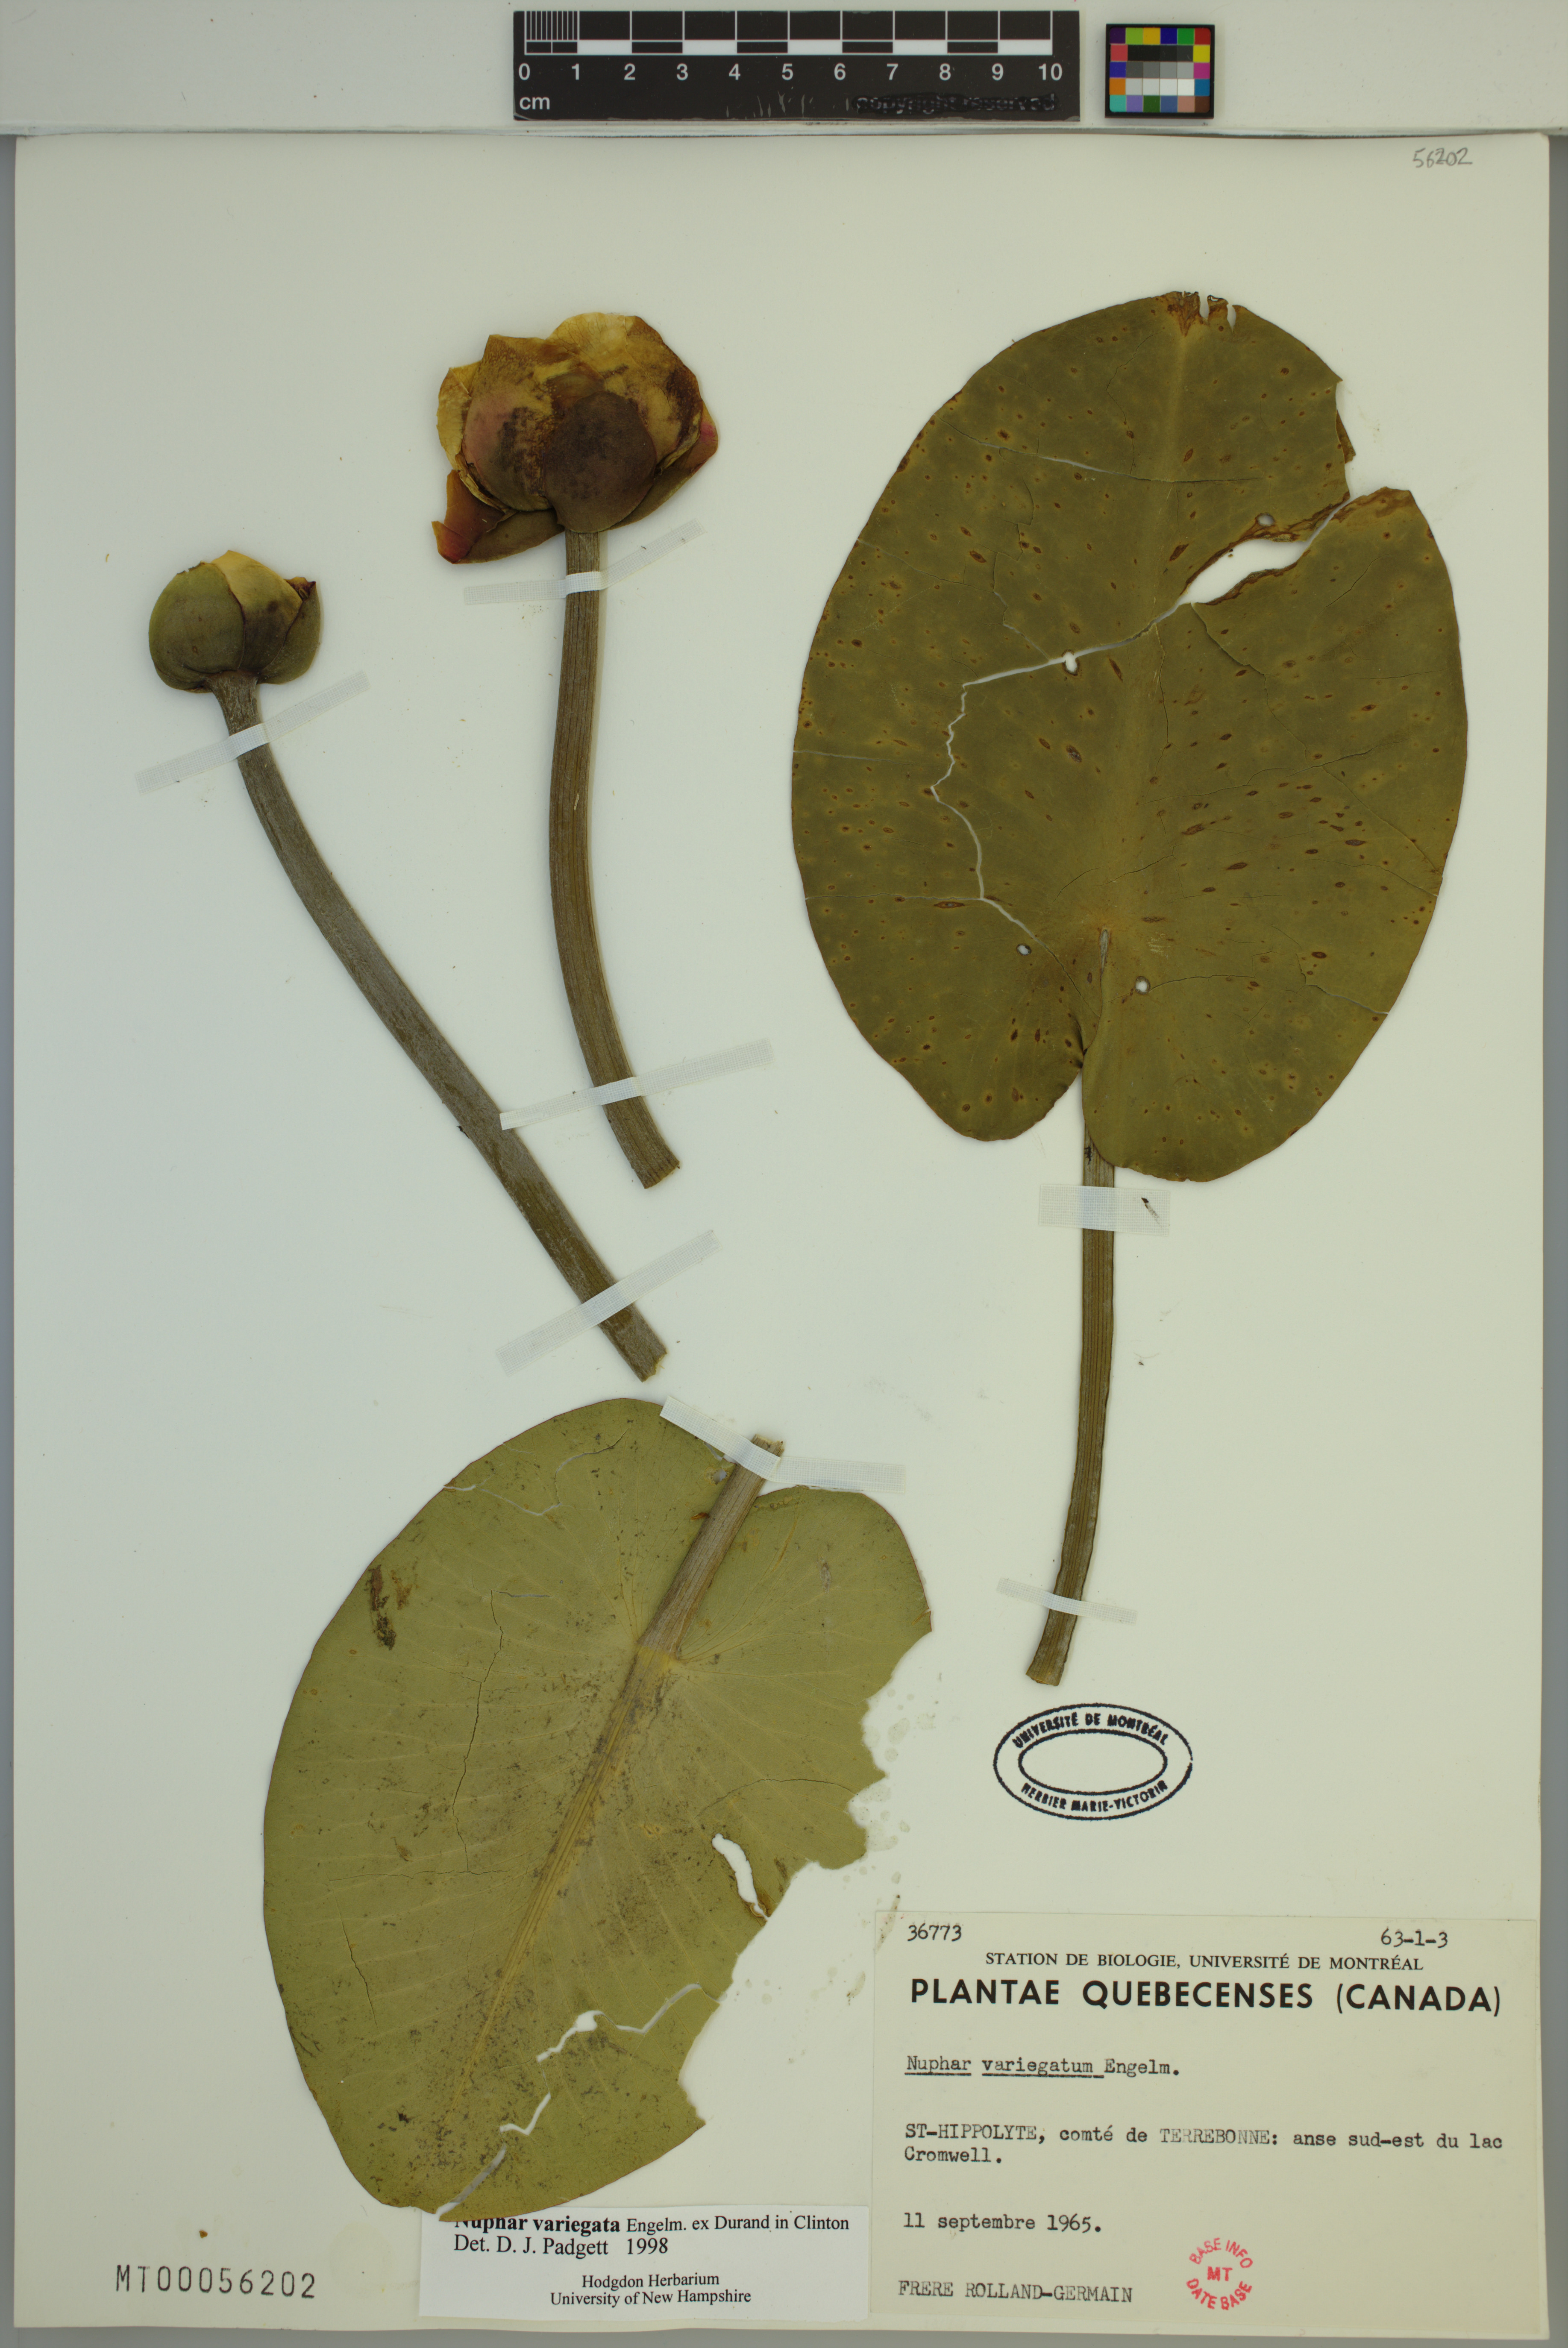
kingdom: Plantae
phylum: Tracheophyta
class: Magnoliopsida
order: Nymphaeales
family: Nymphaeaceae
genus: Nuphar
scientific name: Nuphar variegata
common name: Beaver-root
